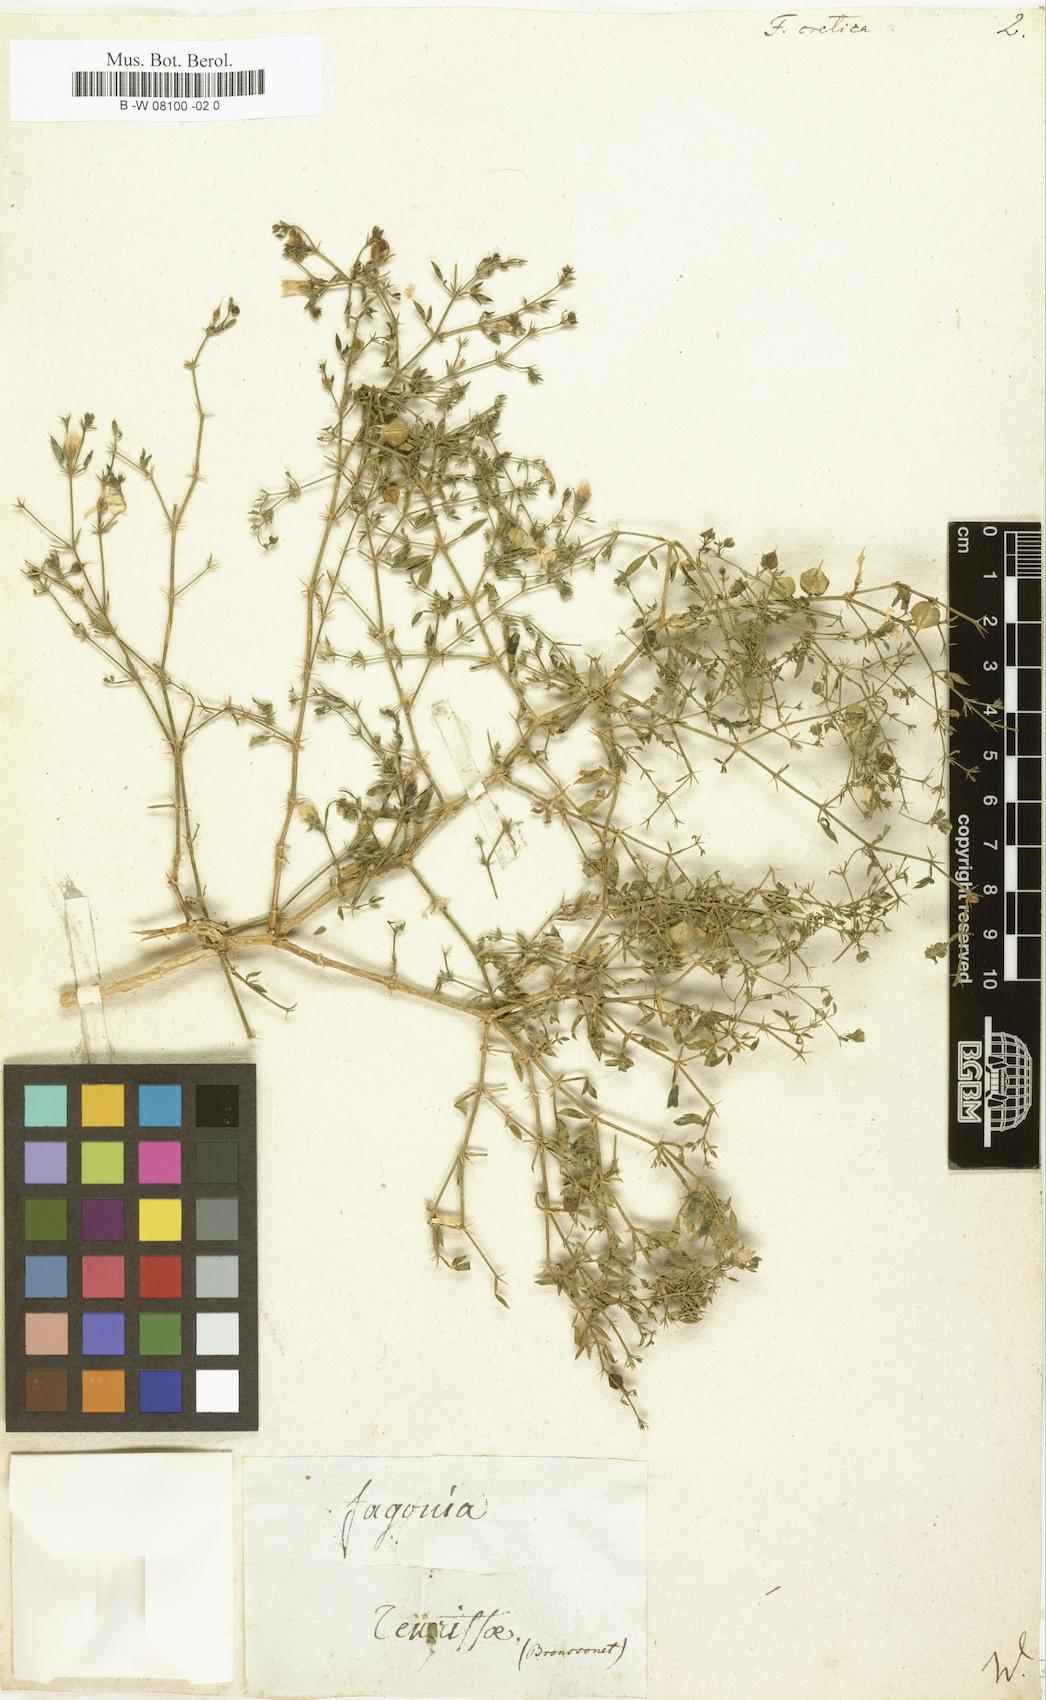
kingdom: Plantae
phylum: Tracheophyta
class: Magnoliopsida
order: Zygophyllales
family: Zygophyllaceae
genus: Fagonia
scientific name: Fagonia cretica
